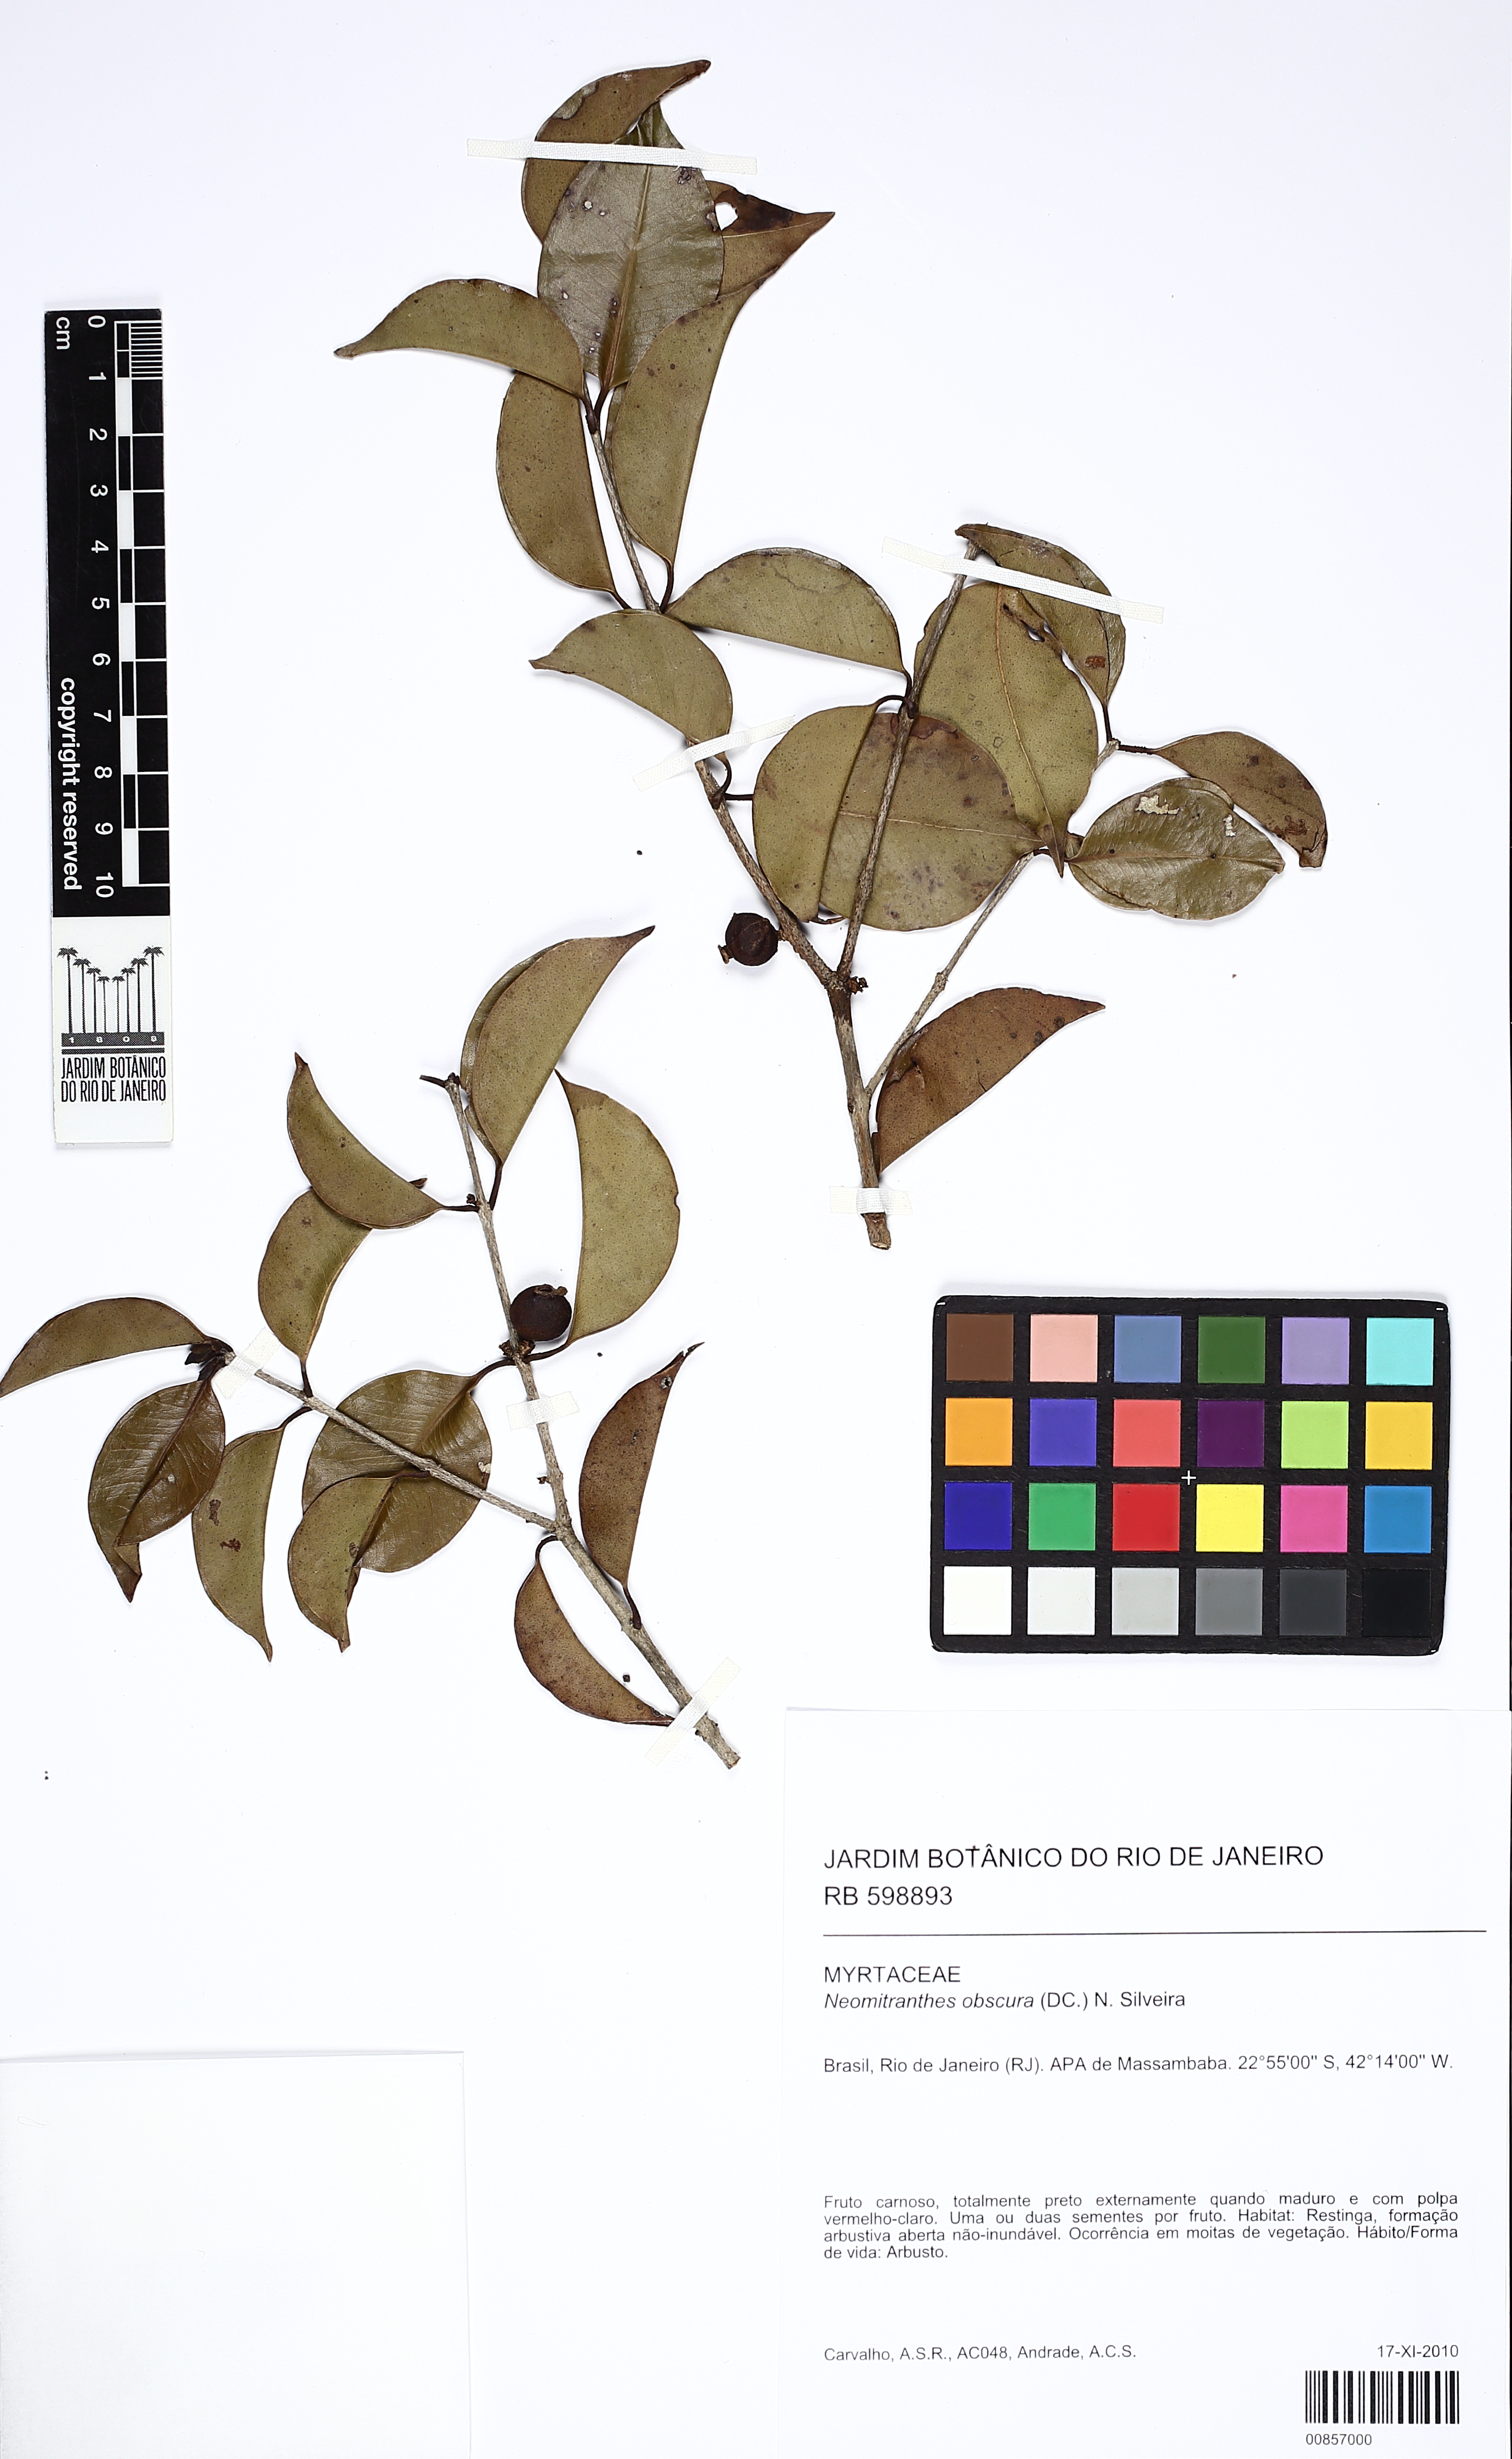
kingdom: Plantae
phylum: Tracheophyta
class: Magnoliopsida
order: Myrtales
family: Myrtaceae
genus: Neomitranthes
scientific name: Neomitranthes obscura
